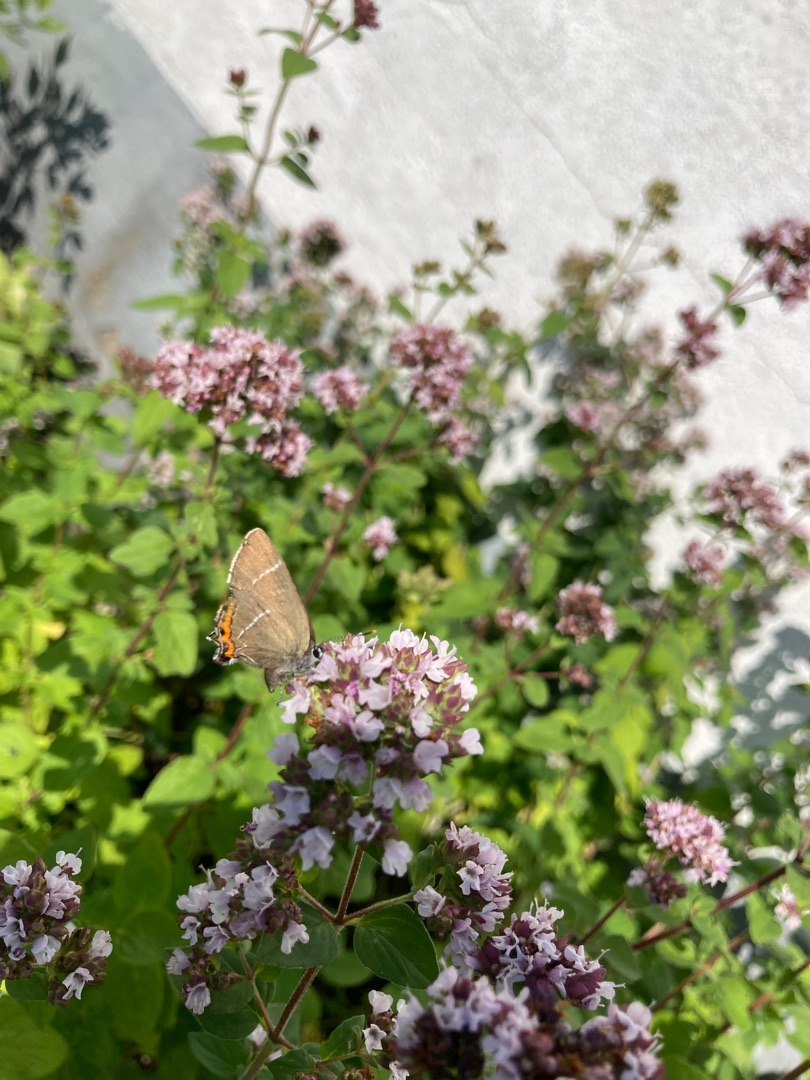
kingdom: Animalia
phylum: Arthropoda
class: Insecta
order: Lepidoptera
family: Lycaenidae
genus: Satyrium
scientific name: Satyrium w-album
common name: Det hvide W
